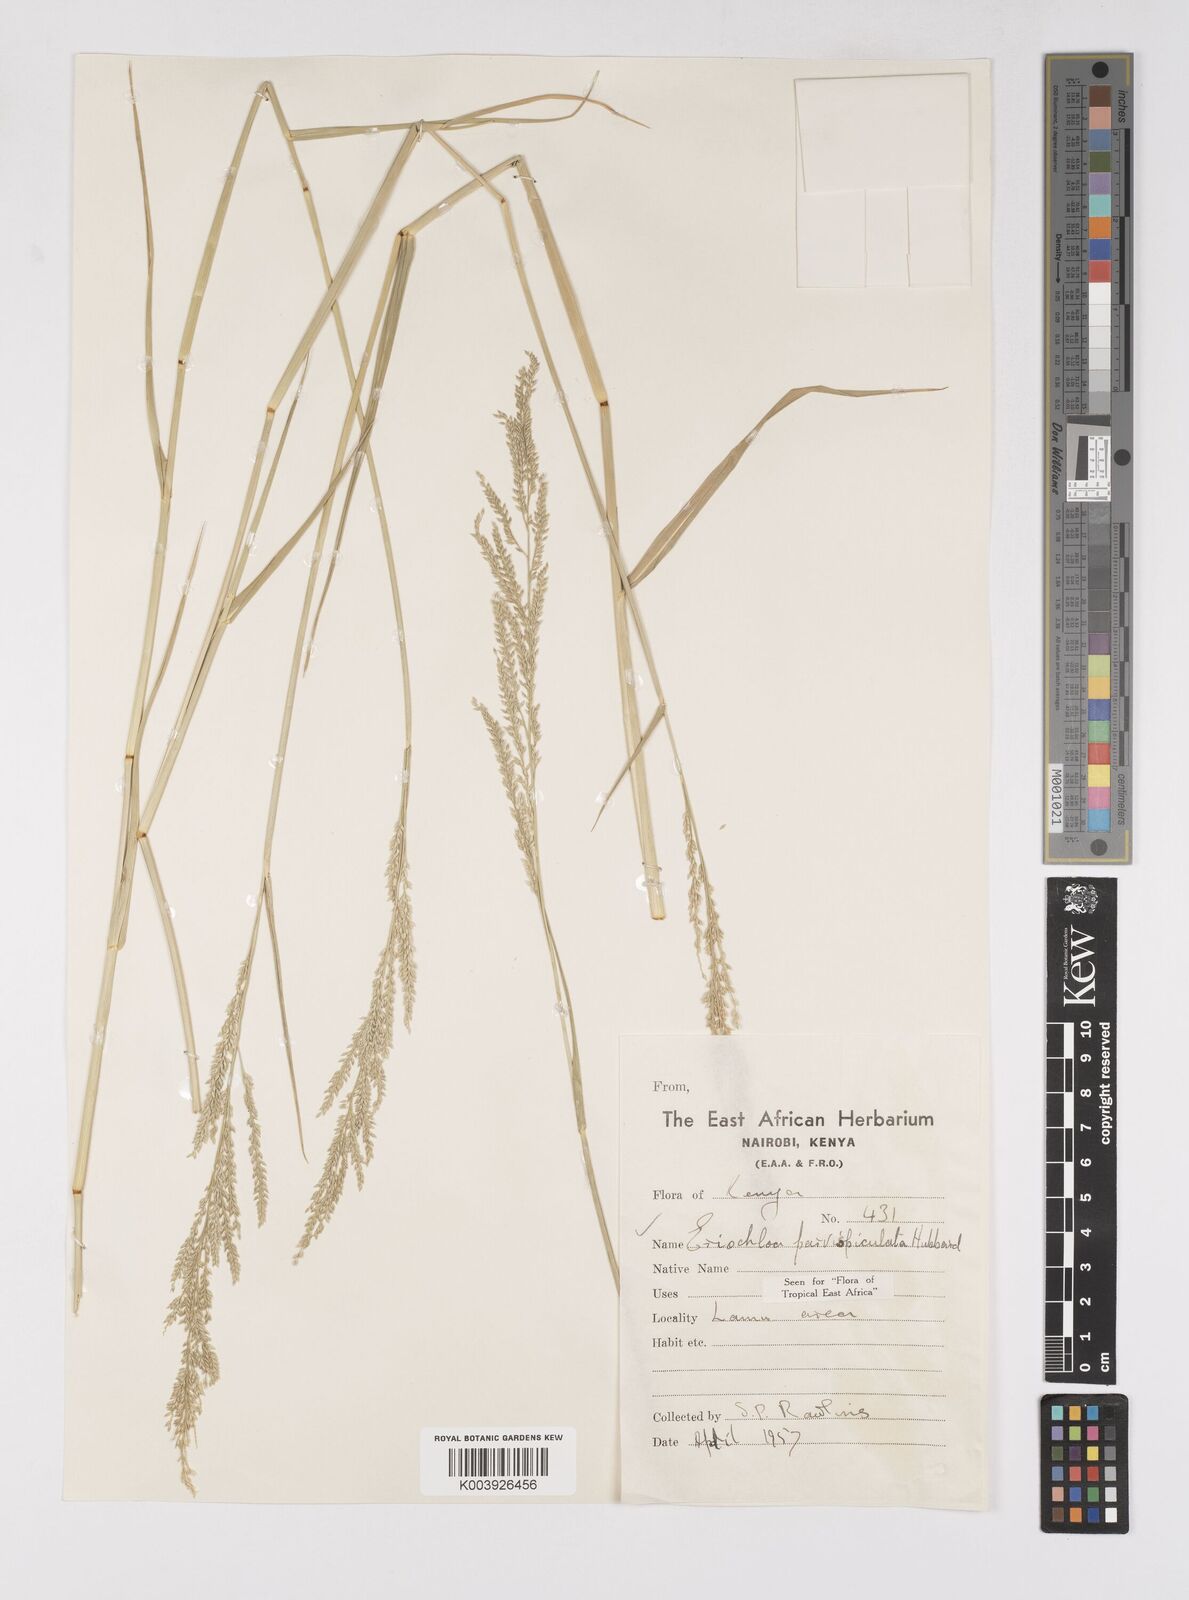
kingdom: Plantae
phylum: Tracheophyta
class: Liliopsida
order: Poales
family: Poaceae
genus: Eriochloa
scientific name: Eriochloa parvispiculata
